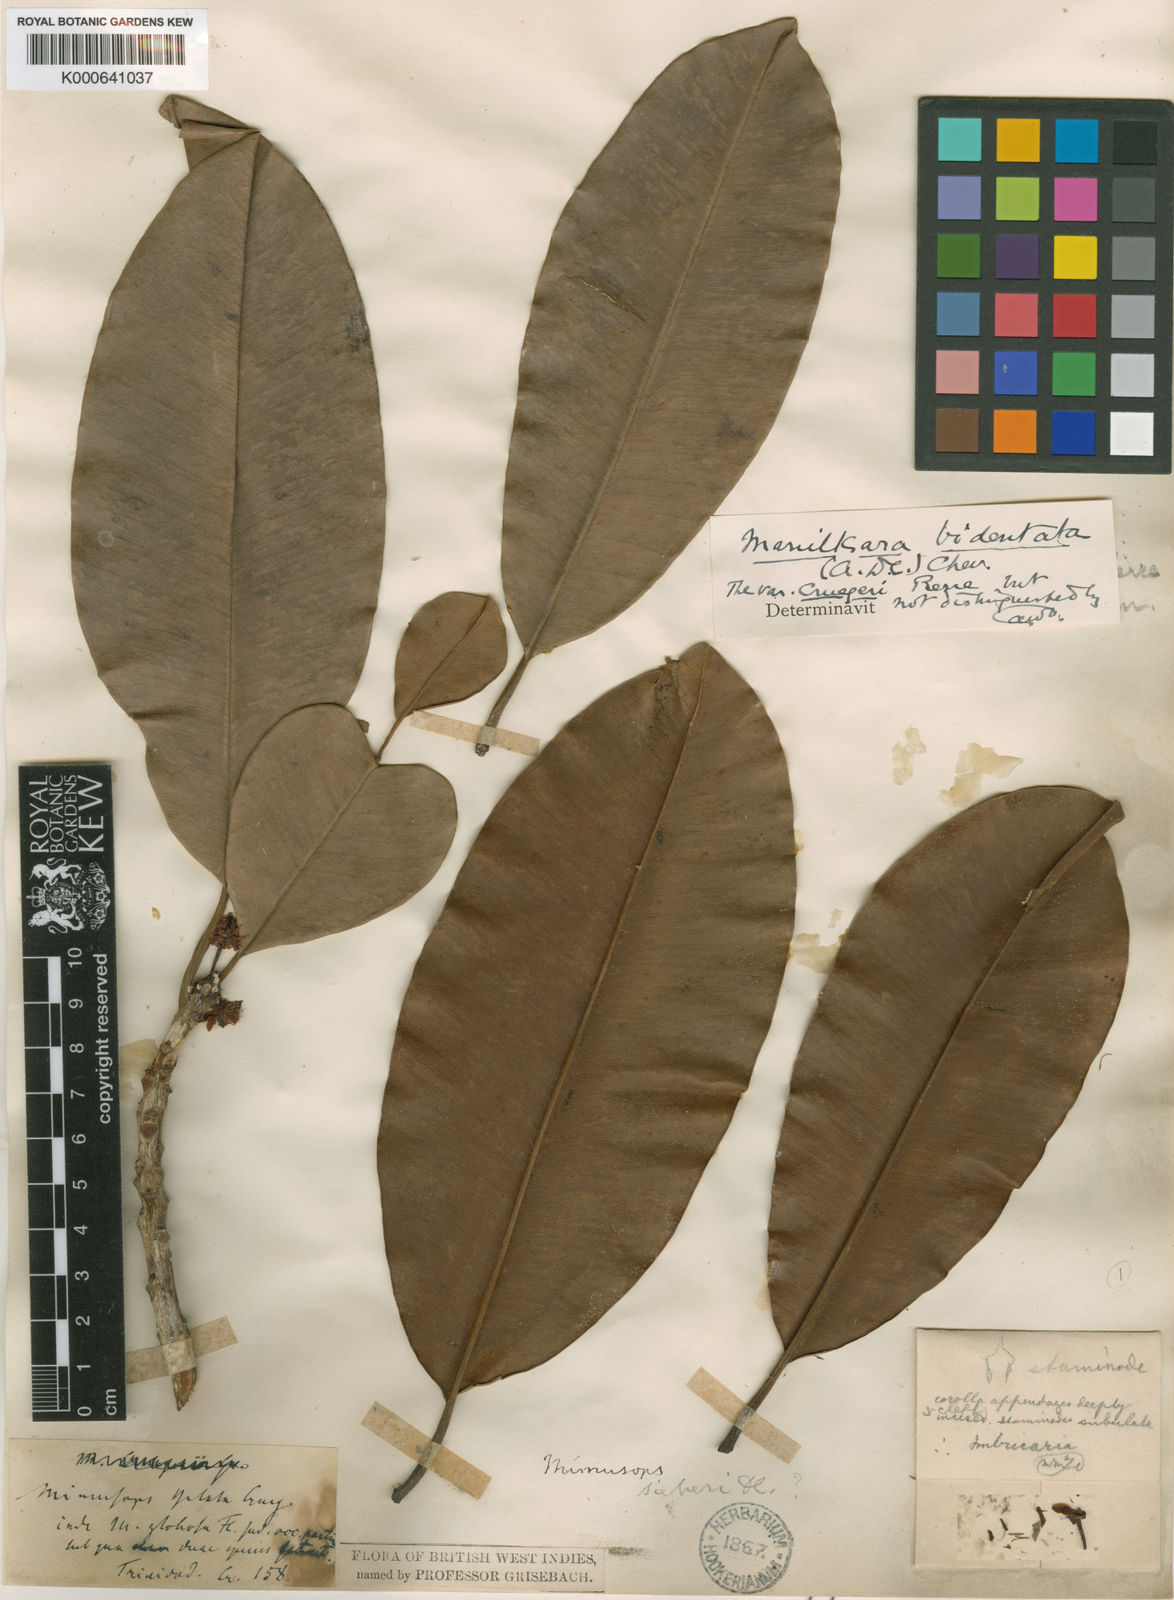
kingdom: Plantae
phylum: Tracheophyta
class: Magnoliopsida
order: Ericales
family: Sapotaceae
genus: Manilkara
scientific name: Manilkara bidentata
